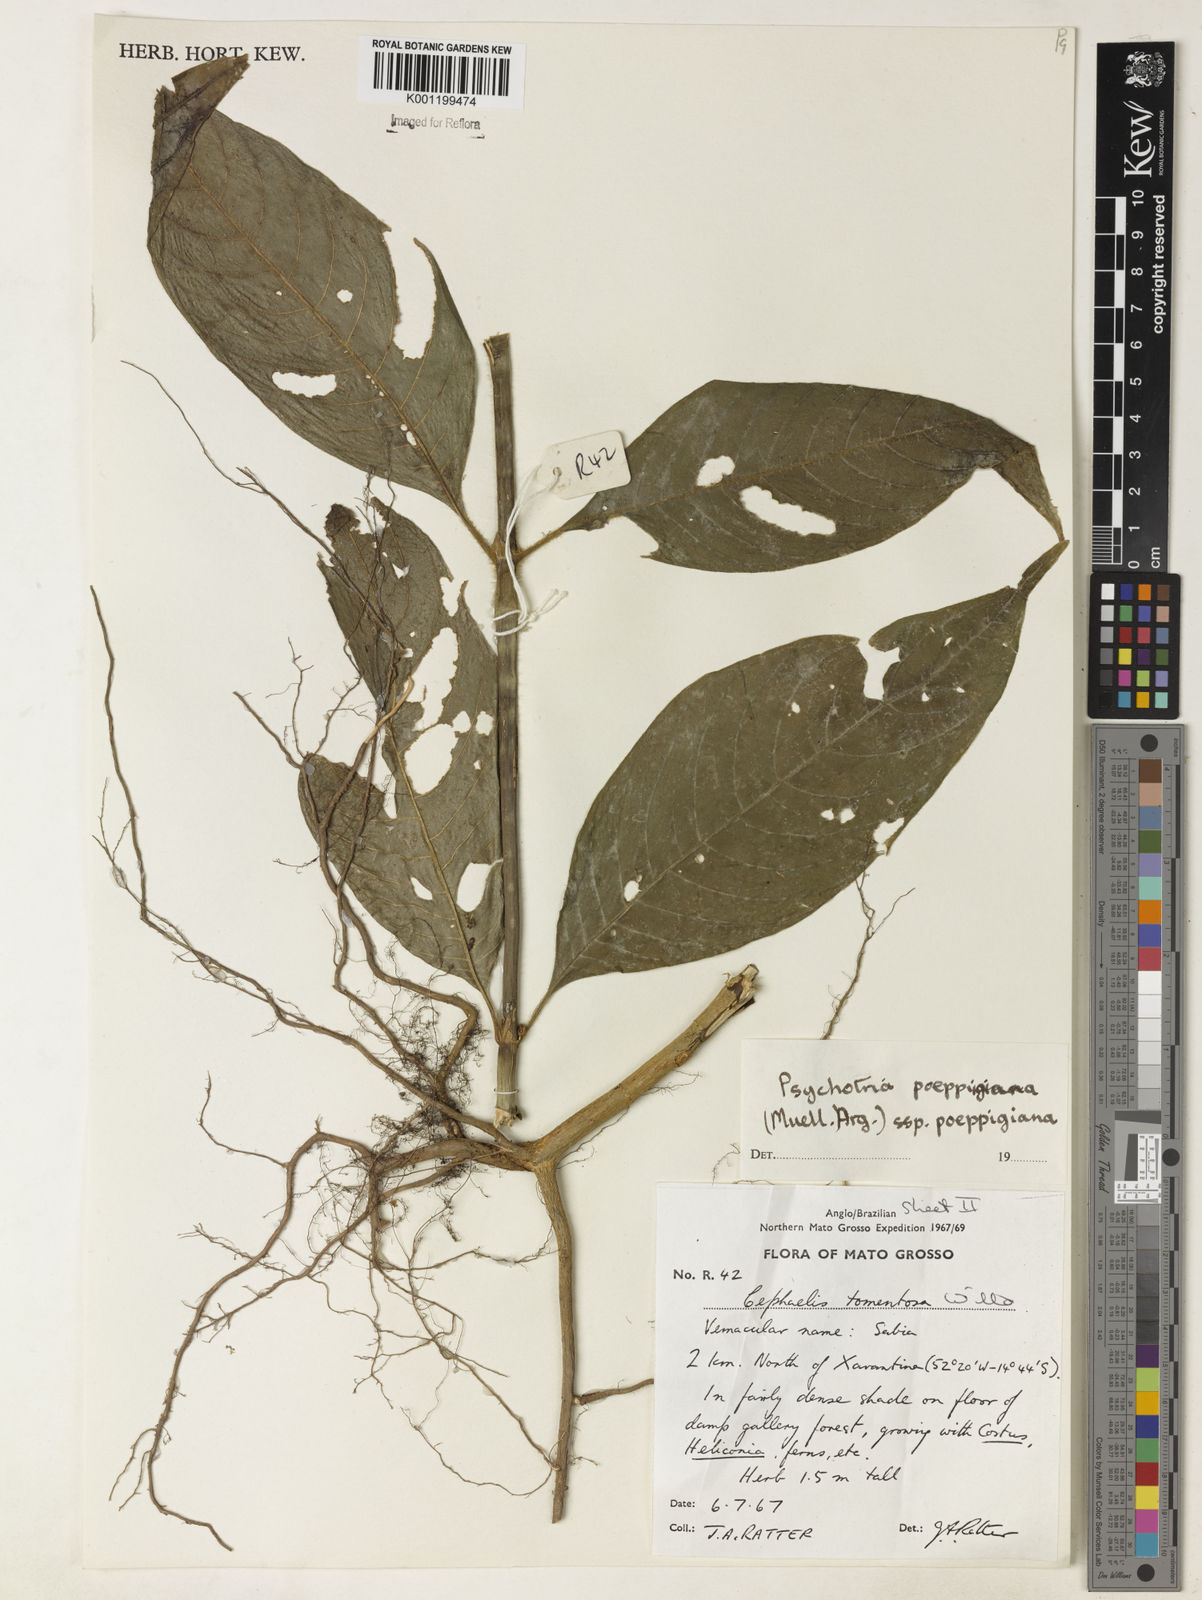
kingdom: Plantae
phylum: Tracheophyta
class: Magnoliopsida
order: Gentianales
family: Rubiaceae
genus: Psychotria
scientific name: Psychotria
